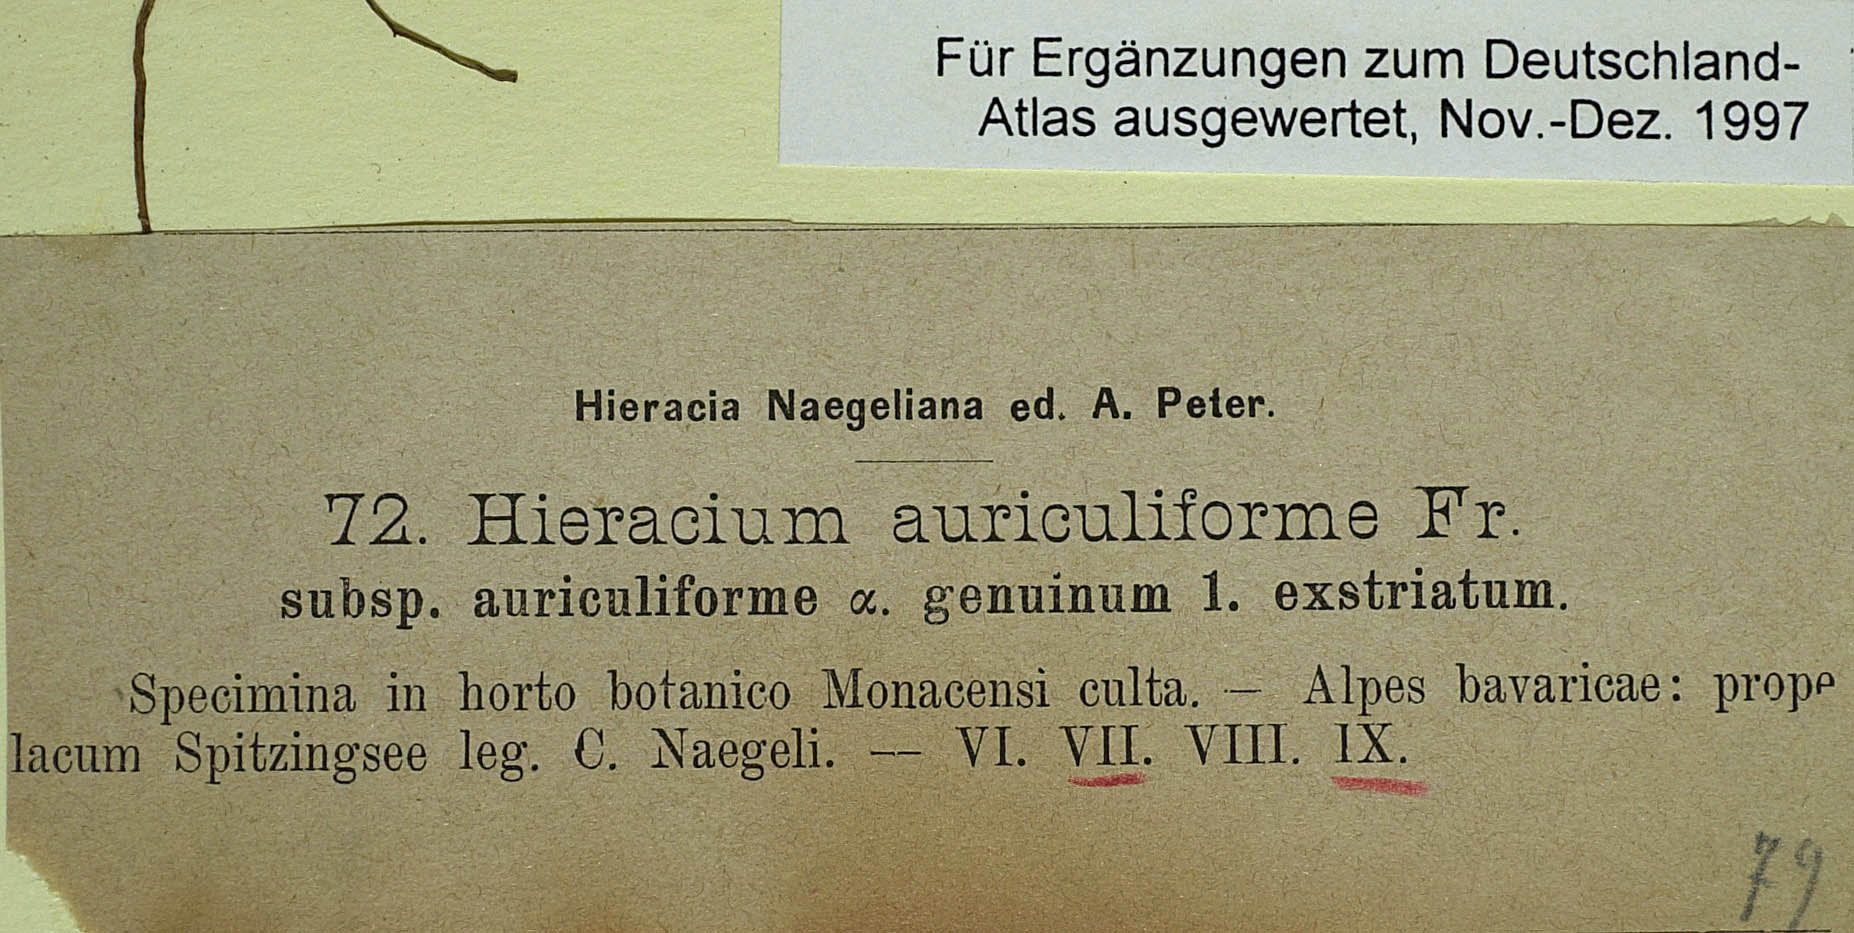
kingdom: Plantae
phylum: Tracheophyta
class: Magnoliopsida
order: Asterales
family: Asteraceae
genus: Pilosella
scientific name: Pilosella schultesii
